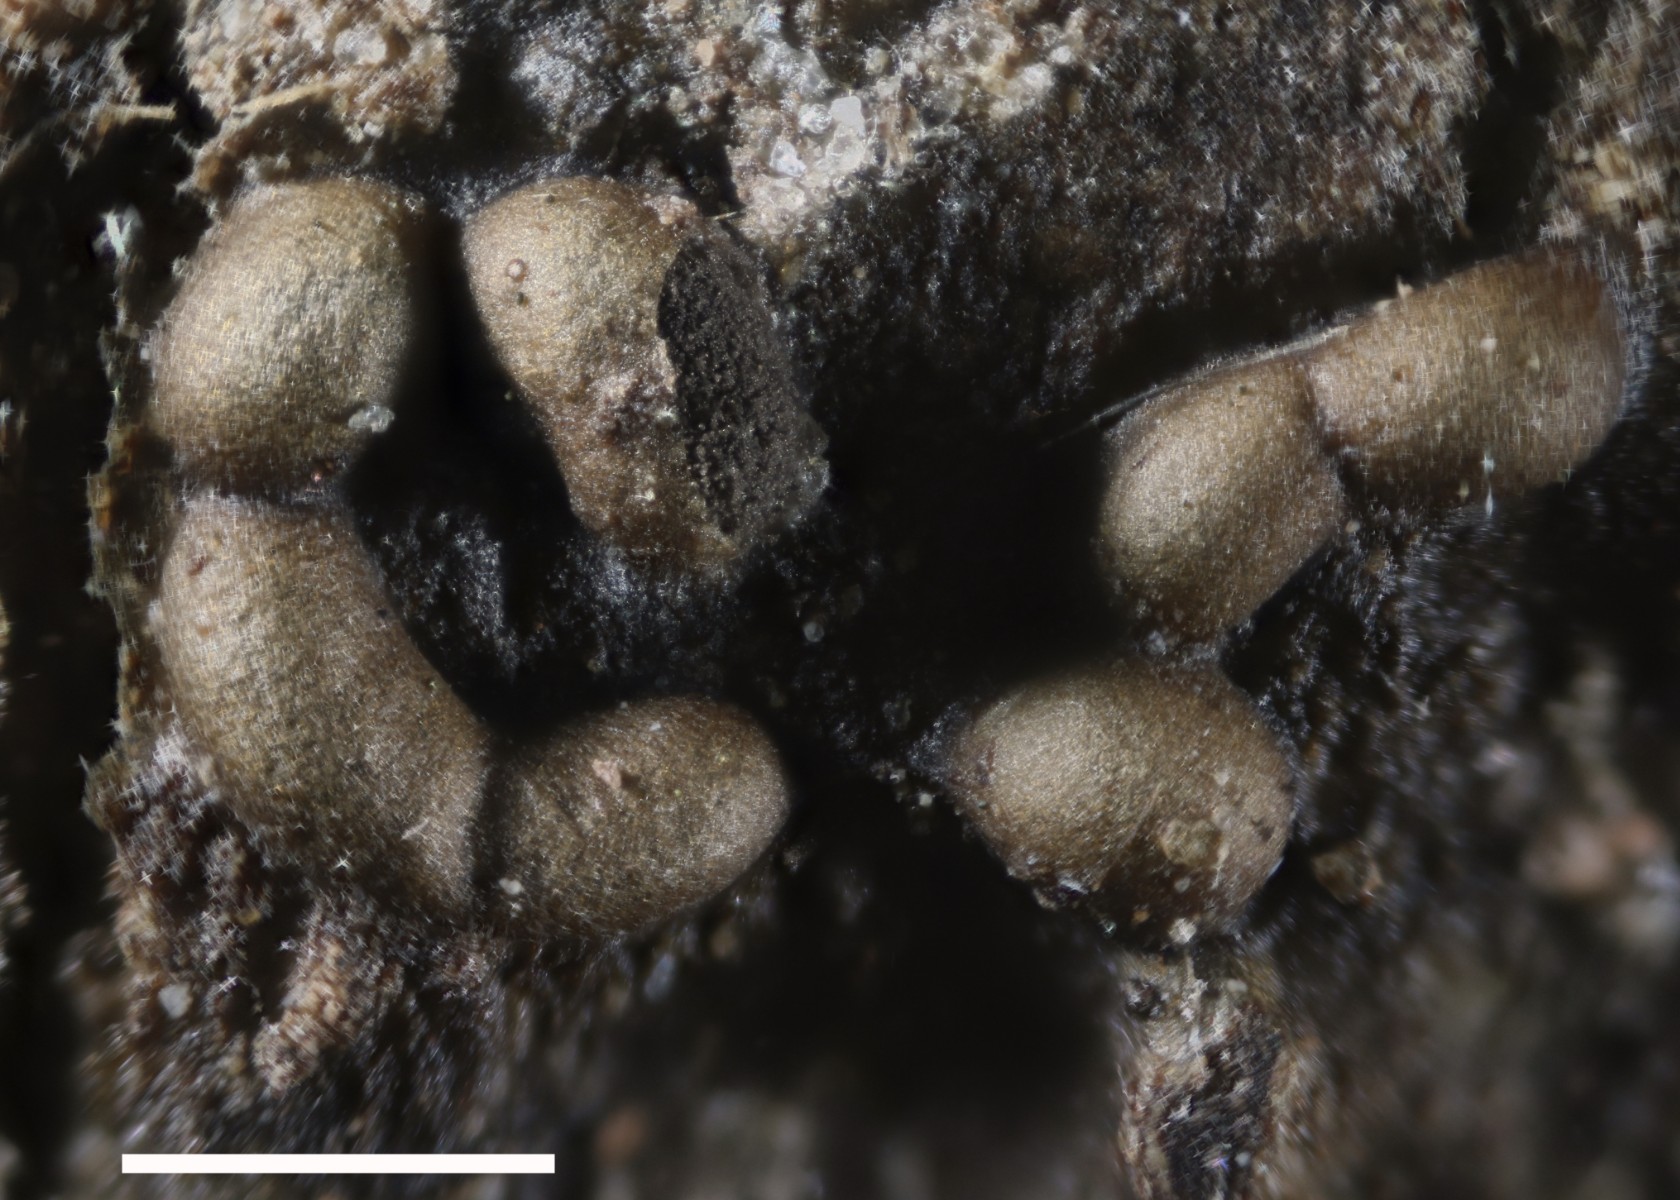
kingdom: Protozoa
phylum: Mycetozoa
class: Myxomycetes
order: Stemonitidales
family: Stemonitidaceae
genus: Colloderma
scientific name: Colloderma oculatum
